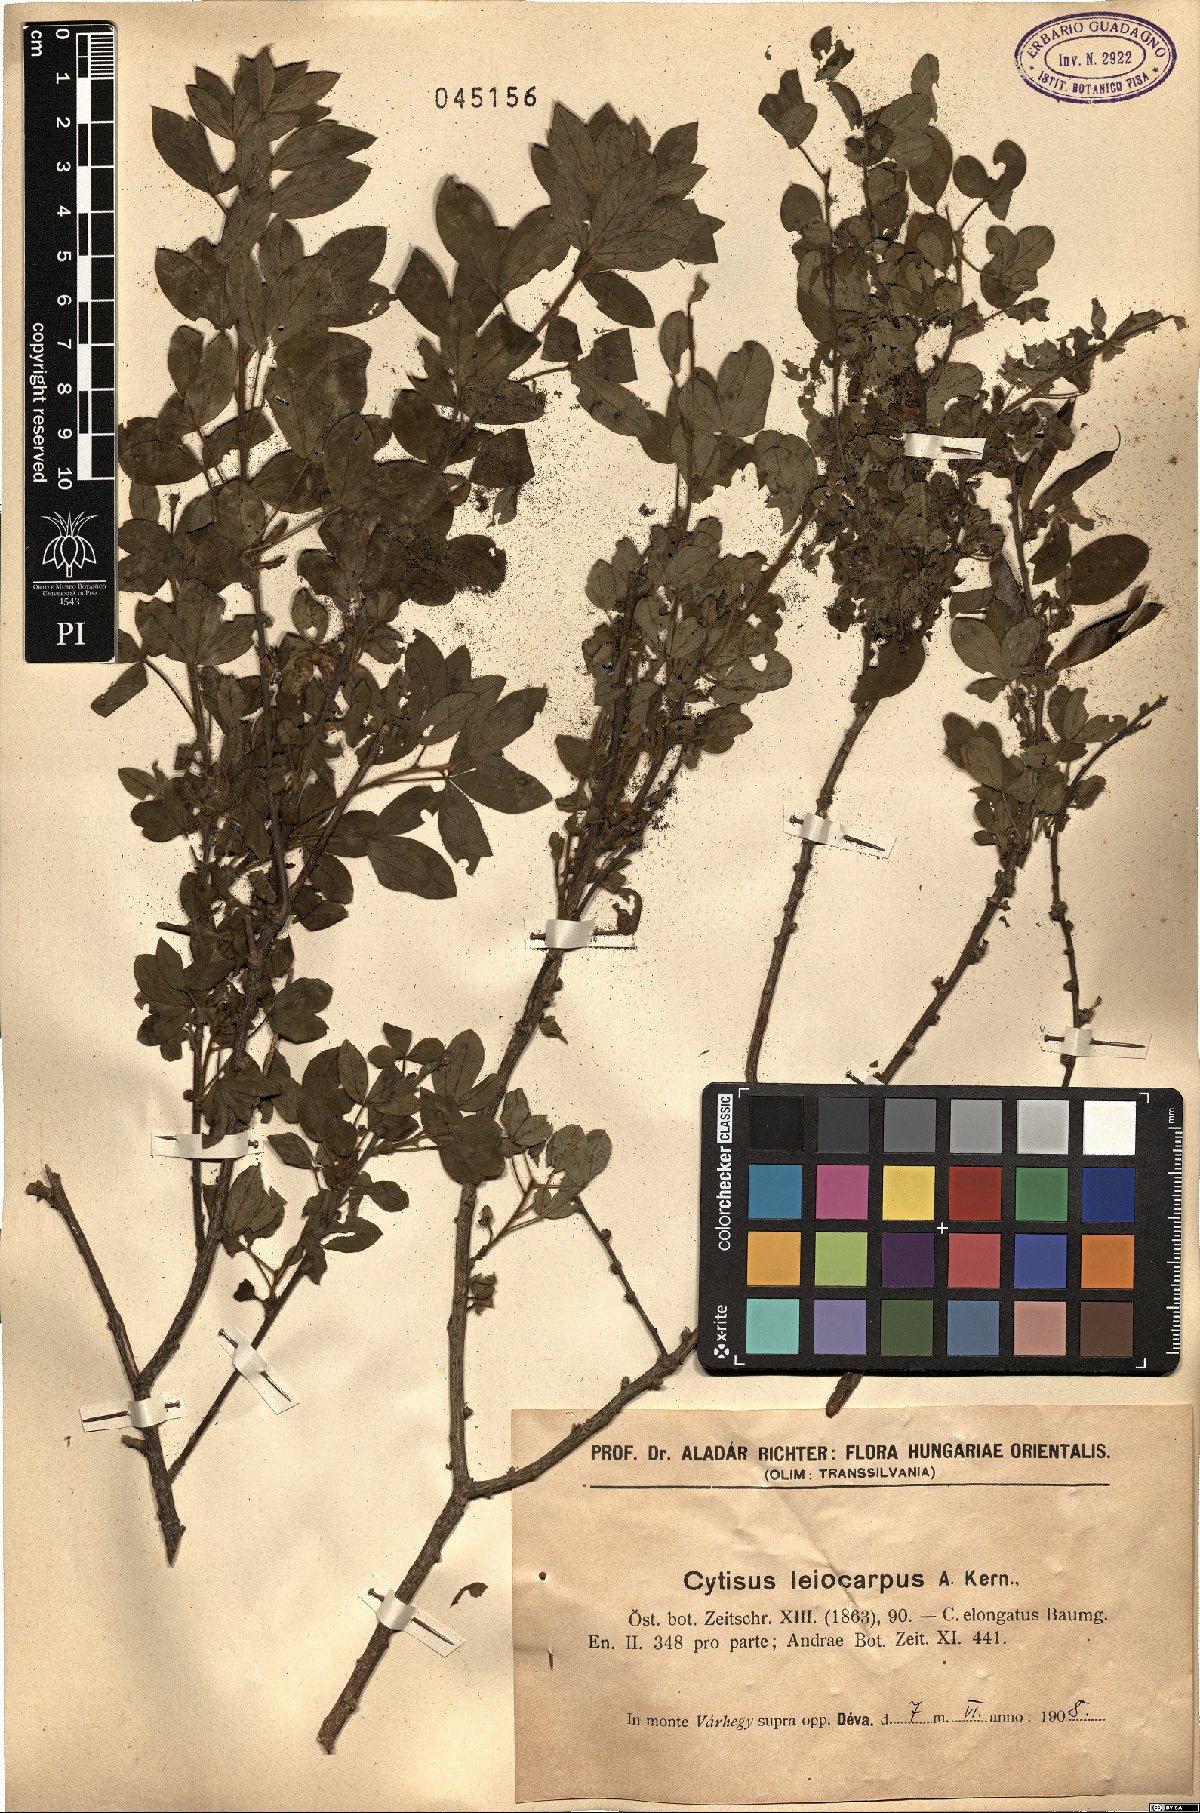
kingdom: Plantae
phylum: Tracheophyta
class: Magnoliopsida
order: Fabales
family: Fabaceae
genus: Chamaecytisus
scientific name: Chamaecytisus leiocarpus
